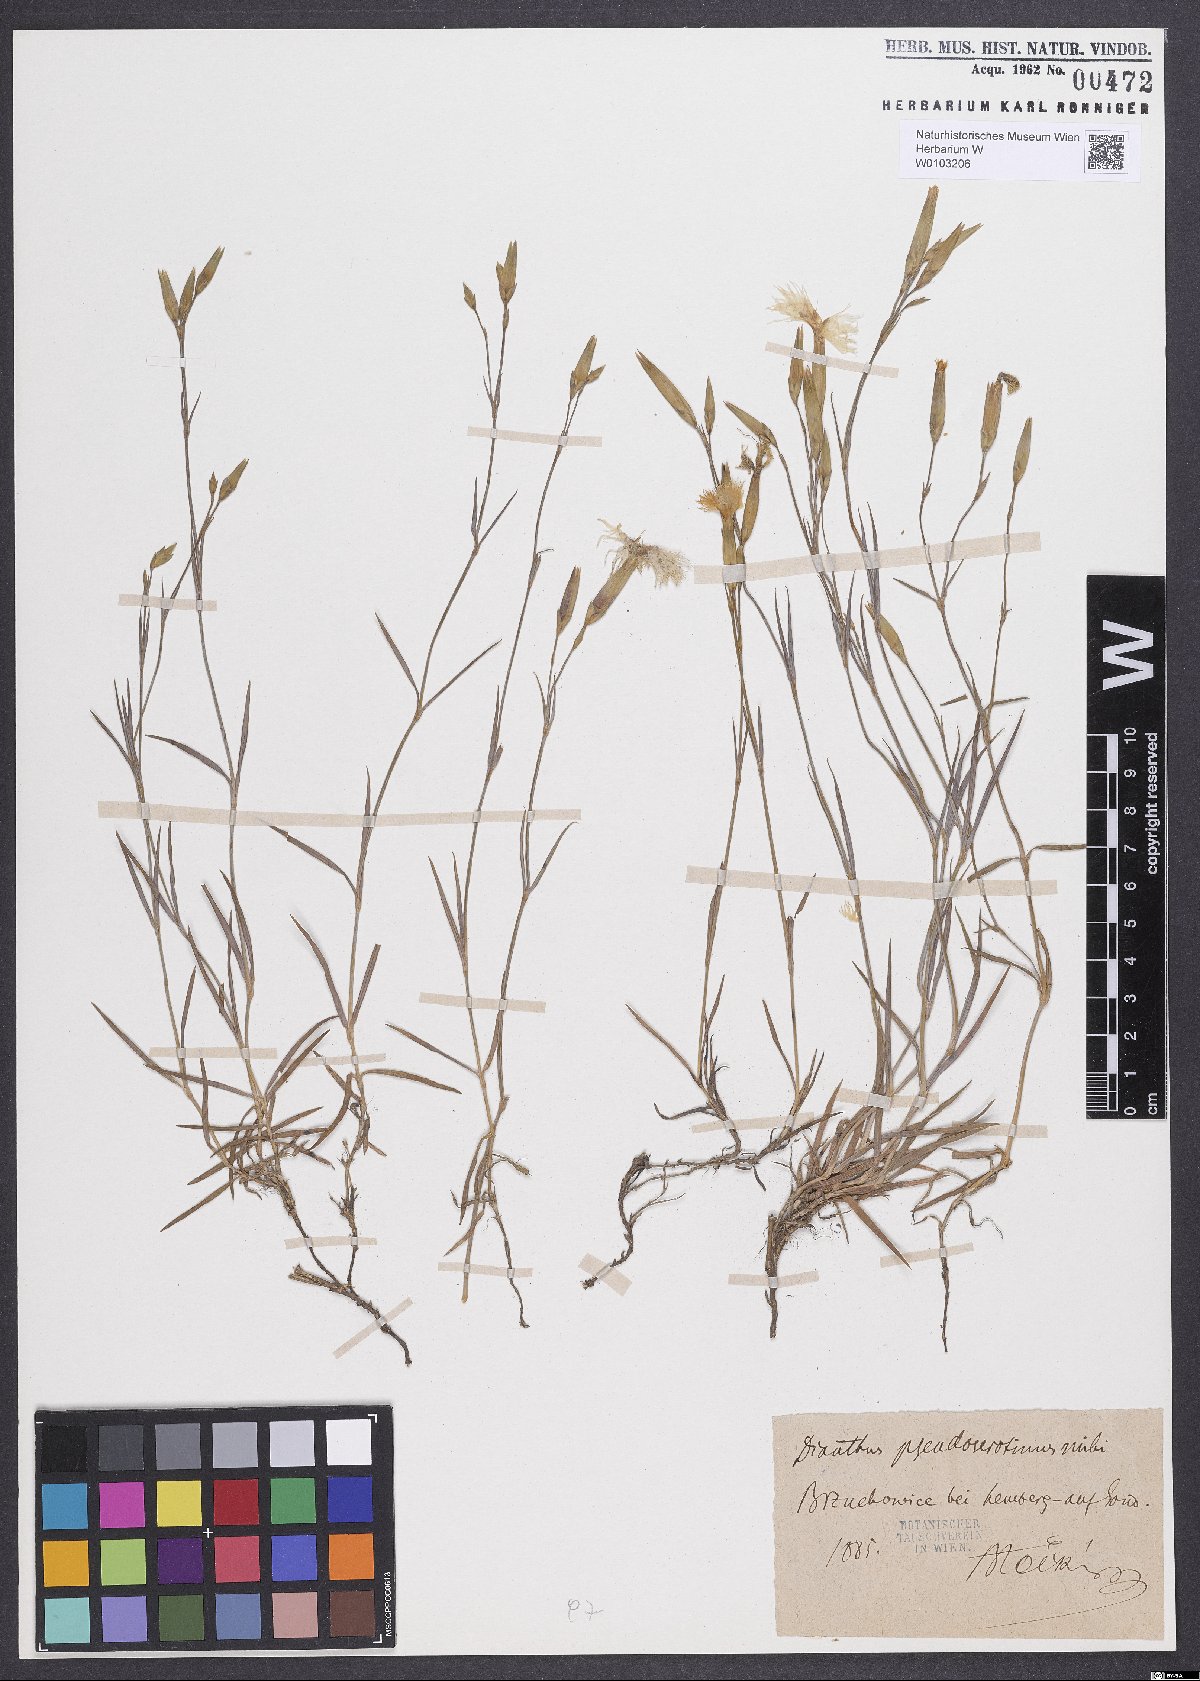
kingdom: Plantae
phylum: Tracheophyta
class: Magnoliopsida
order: Caryophyllales
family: Caryophyllaceae
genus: Dianthus
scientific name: Dianthus arenarius
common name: Stone pink
